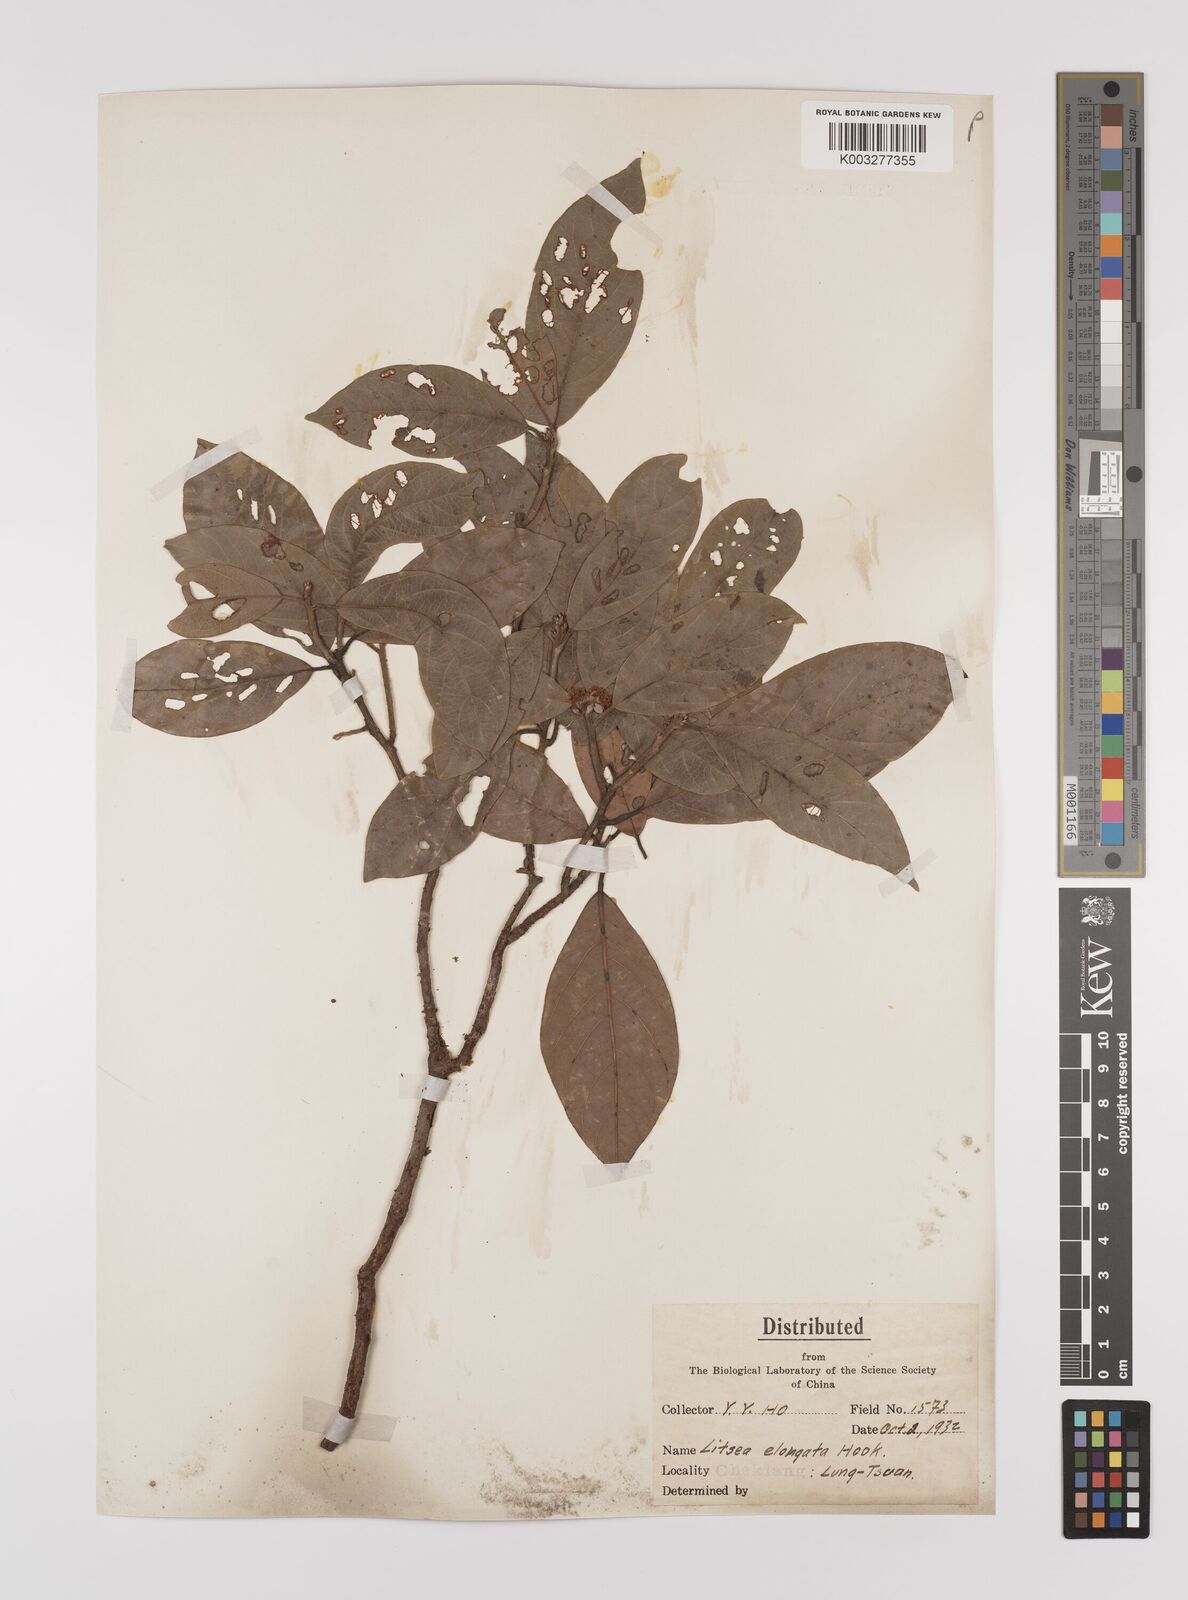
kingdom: Plantae
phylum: Tracheophyta
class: Magnoliopsida
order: Laurales
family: Lauraceae
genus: Litsea
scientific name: Litsea elongata
